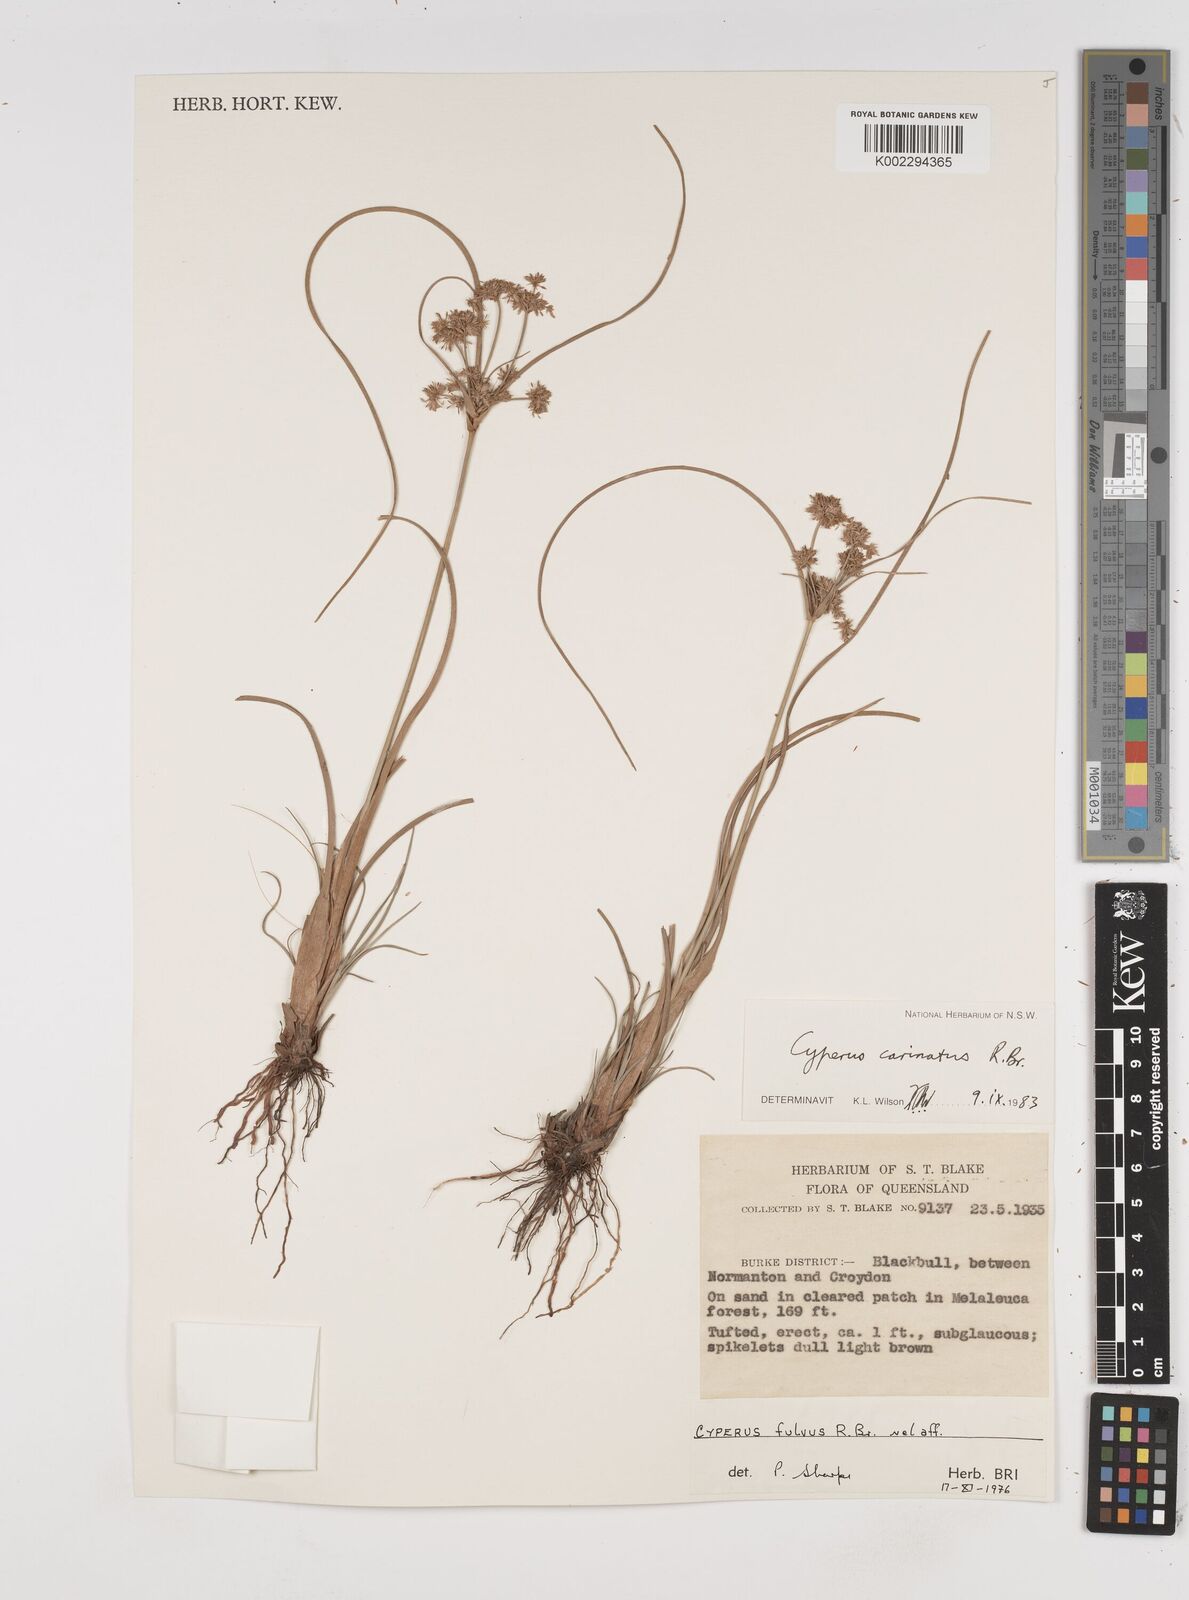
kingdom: Plantae
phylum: Tracheophyta
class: Liliopsida
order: Poales
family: Cyperaceae
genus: Cyperus
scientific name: Cyperus carinatus
